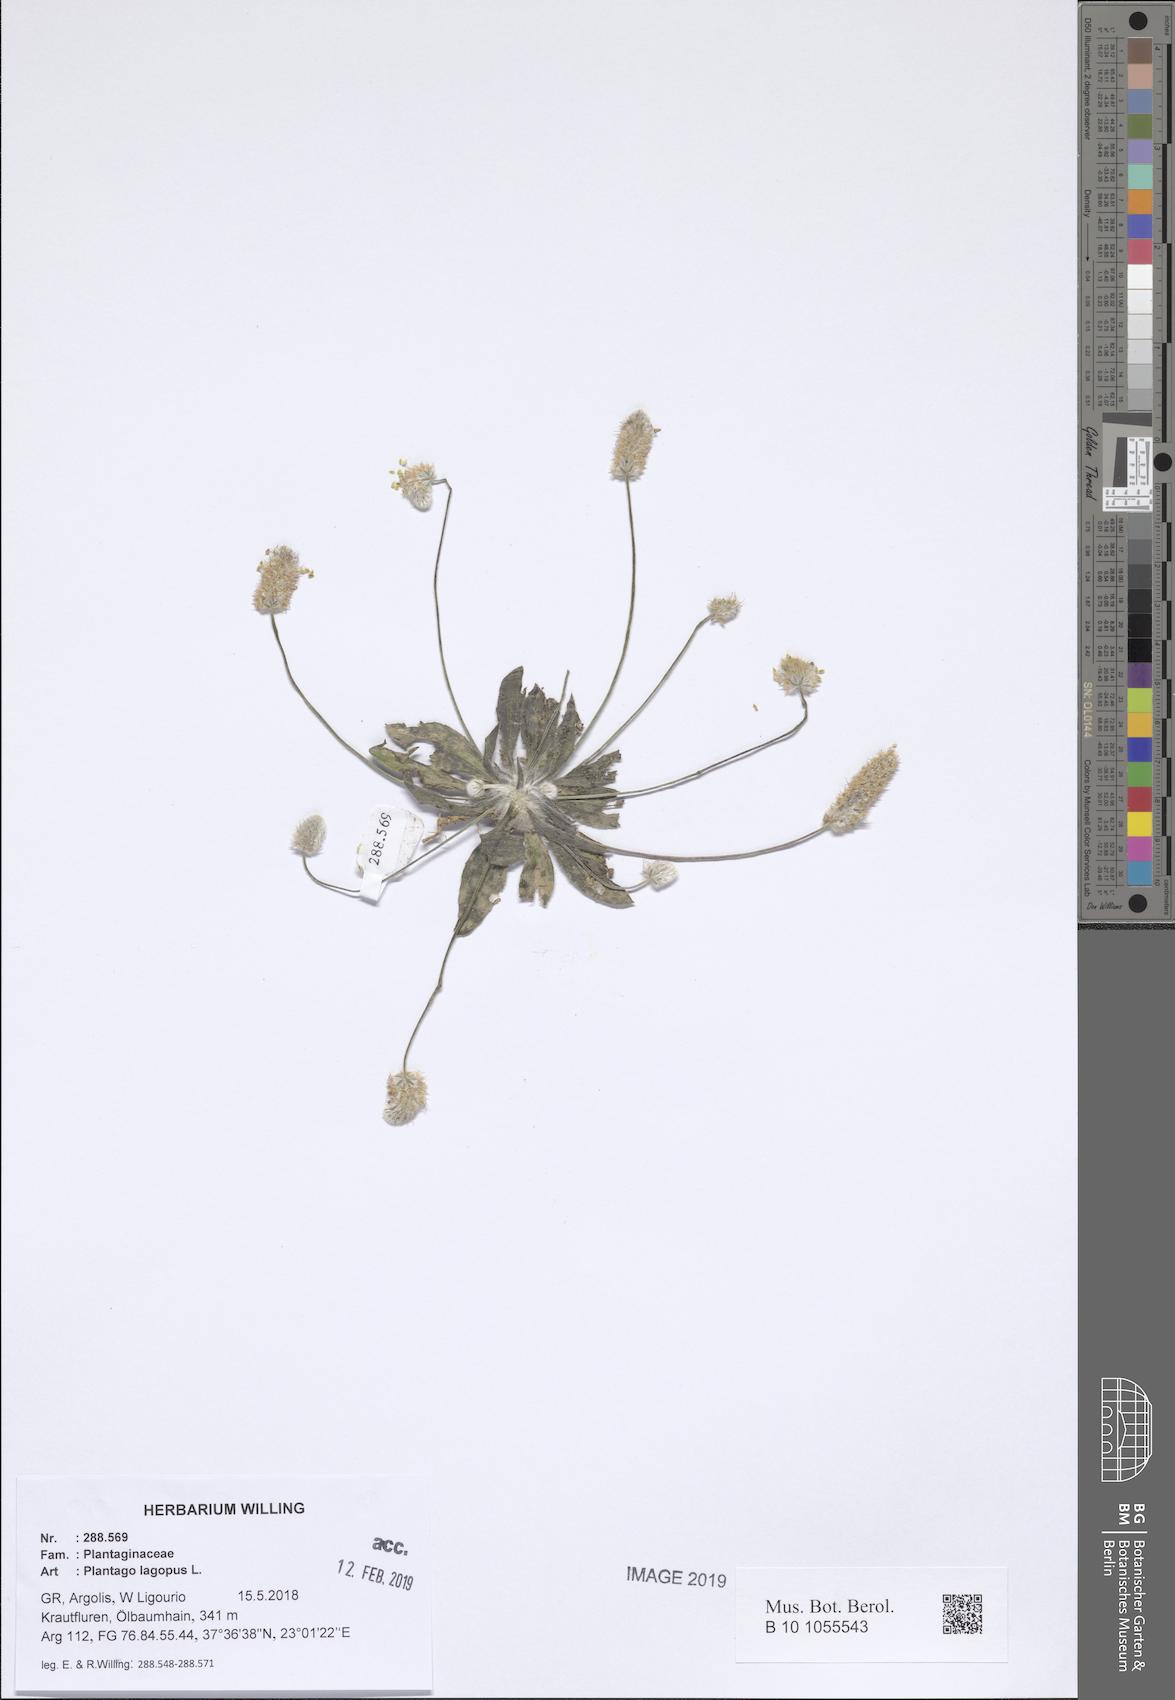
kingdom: Plantae
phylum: Tracheophyta
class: Magnoliopsida
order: Lamiales
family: Plantaginaceae
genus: Plantago
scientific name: Plantago lagopus
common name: Hare-foot plantain
